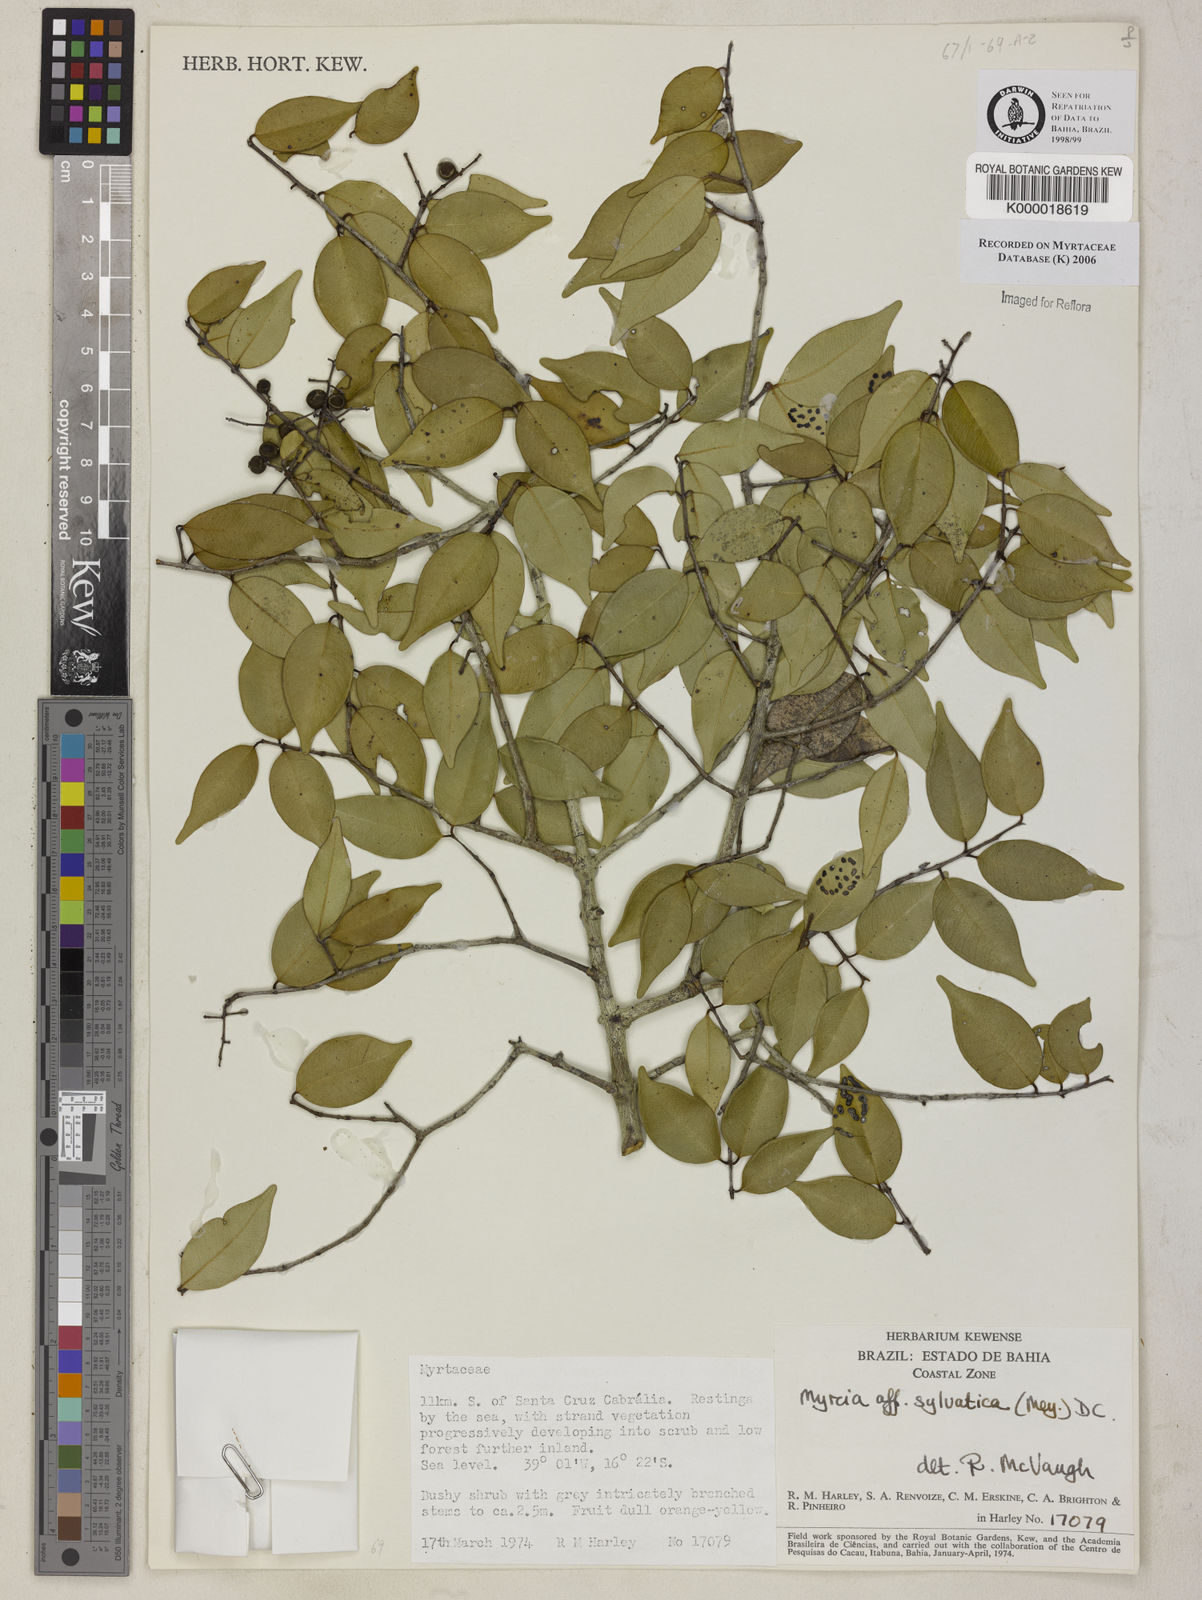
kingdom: Plantae
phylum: Tracheophyta
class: Magnoliopsida
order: Myrtales
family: Myrtaceae
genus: Myrcia
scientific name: Myrcia sylvatica
